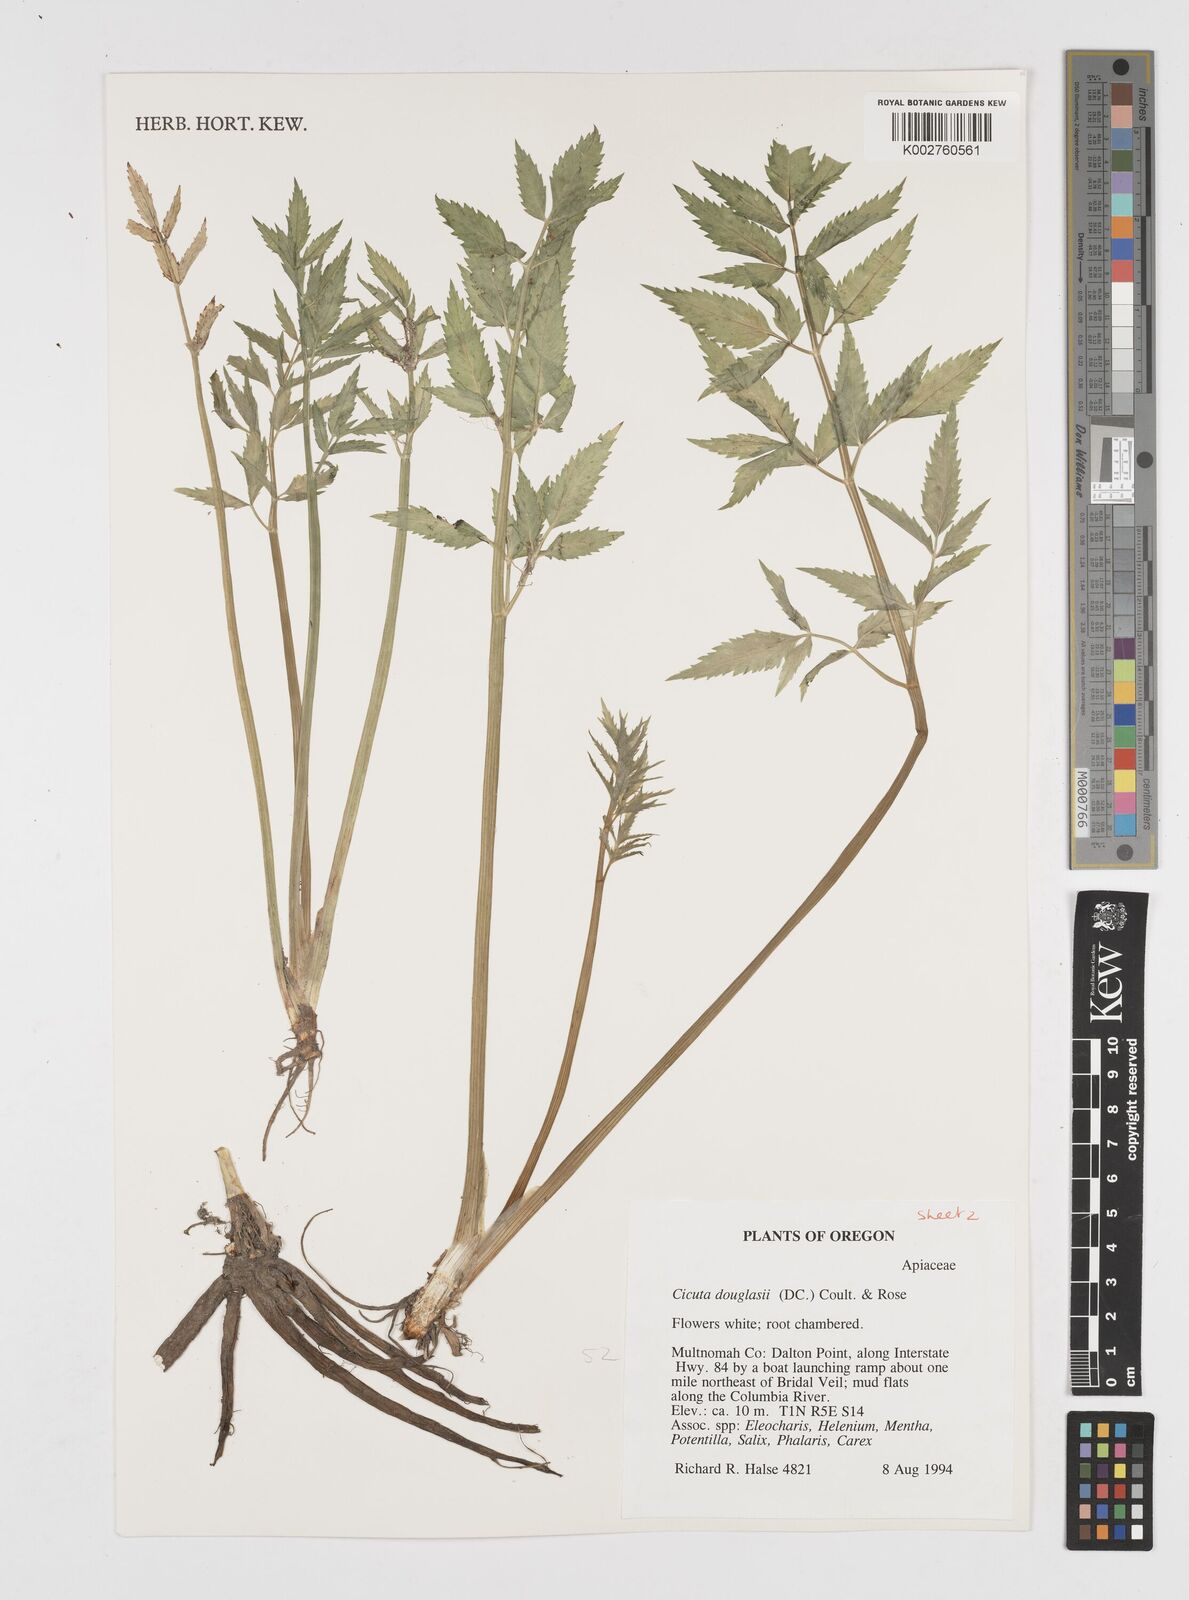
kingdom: Plantae
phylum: Tracheophyta
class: Magnoliopsida
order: Apiales
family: Apiaceae
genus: Cicuta
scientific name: Cicuta douglasii
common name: Western water-hemlock
